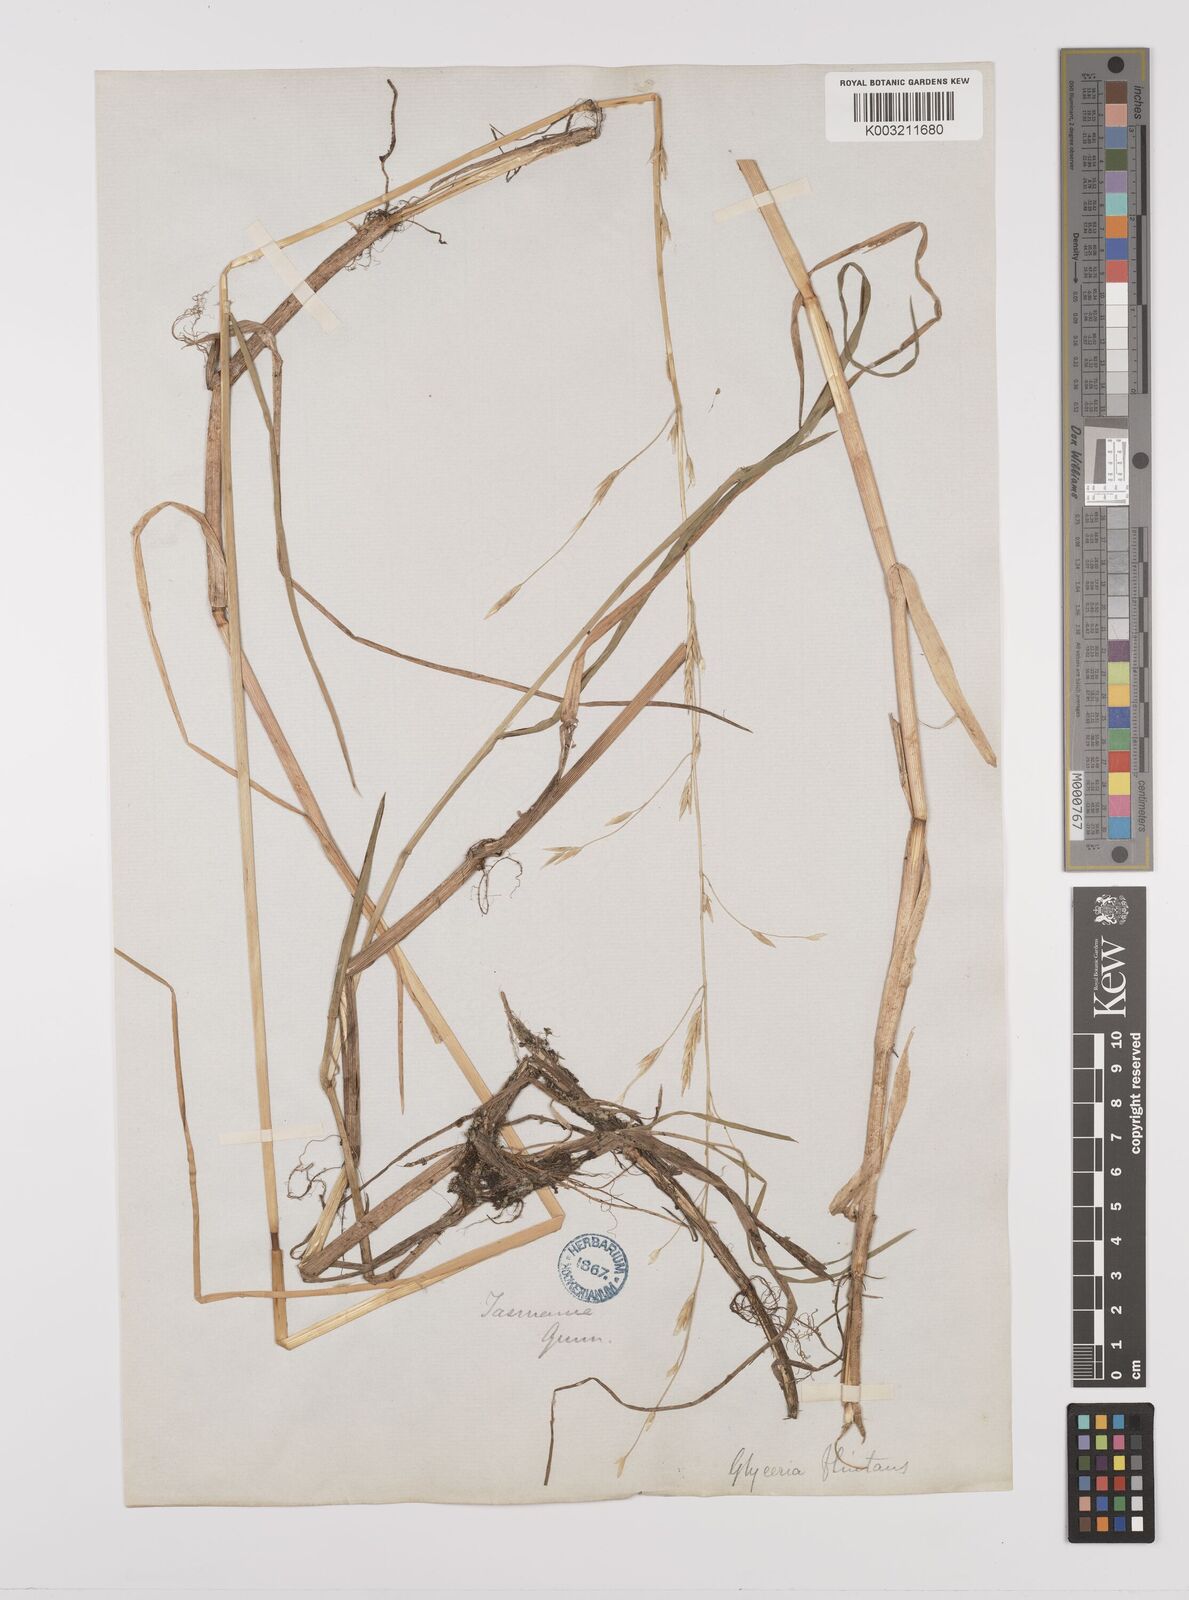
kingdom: Plantae
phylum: Tracheophyta
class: Liliopsida
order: Poales
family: Poaceae
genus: Glyceria
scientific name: Glyceria australis
